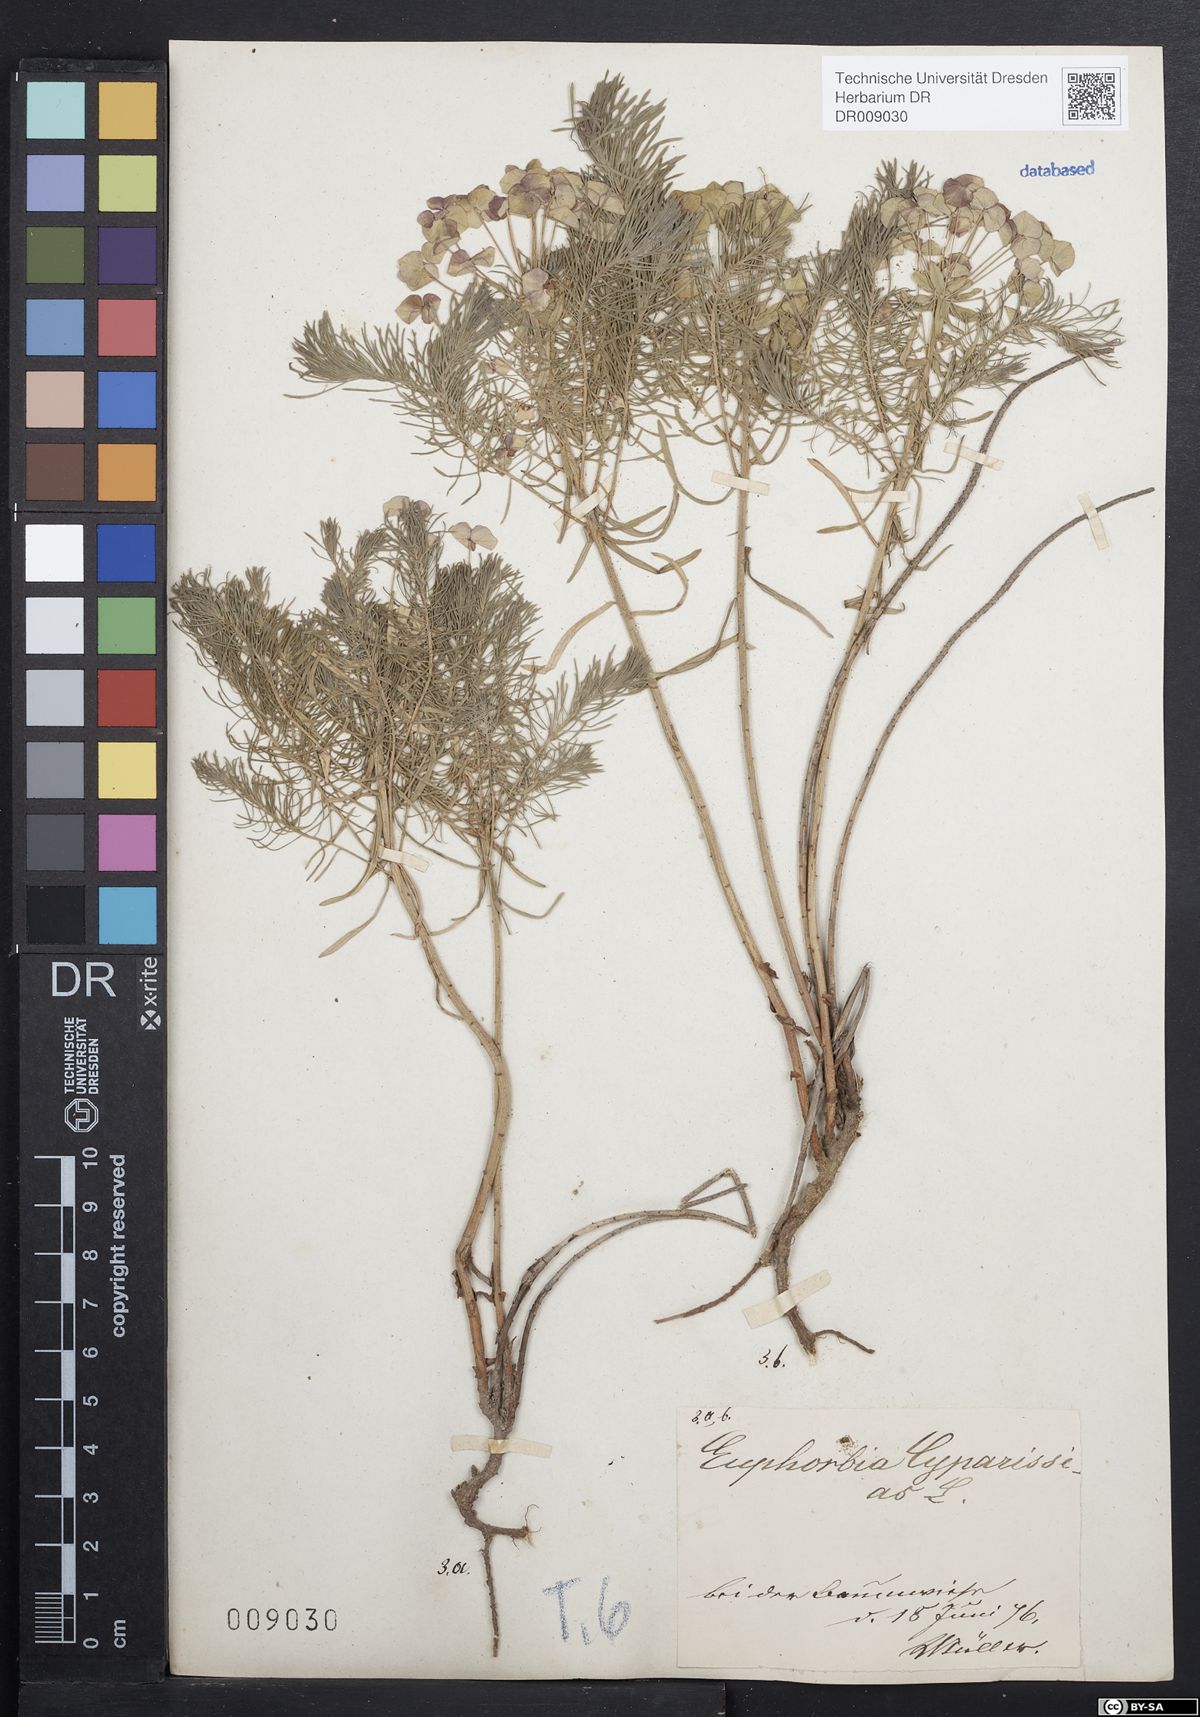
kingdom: Plantae
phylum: Tracheophyta
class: Magnoliopsida
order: Malpighiales
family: Euphorbiaceae
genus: Euphorbia
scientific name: Euphorbia cyparissias
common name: Cypress spurge
